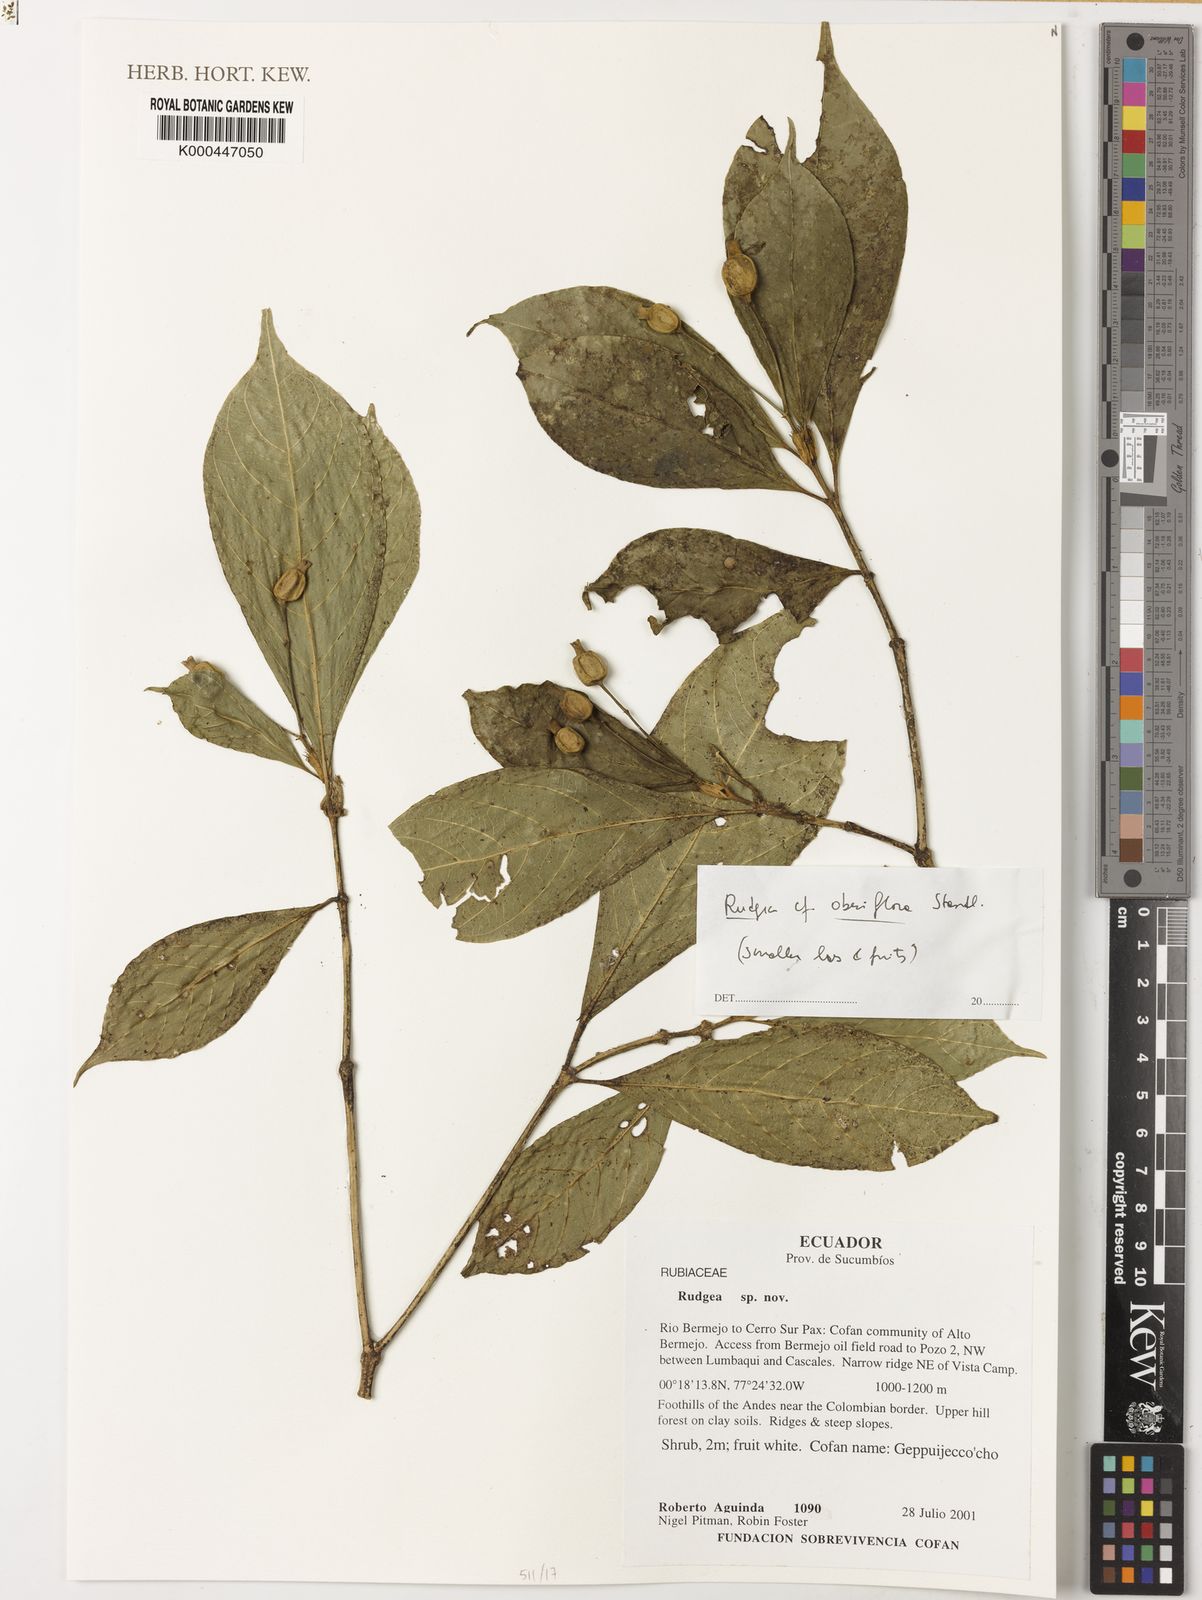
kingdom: Plantae
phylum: Tracheophyta
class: Magnoliopsida
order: Gentianales
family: Rubiaceae
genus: Rudgea
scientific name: Rudgea obesiflora
